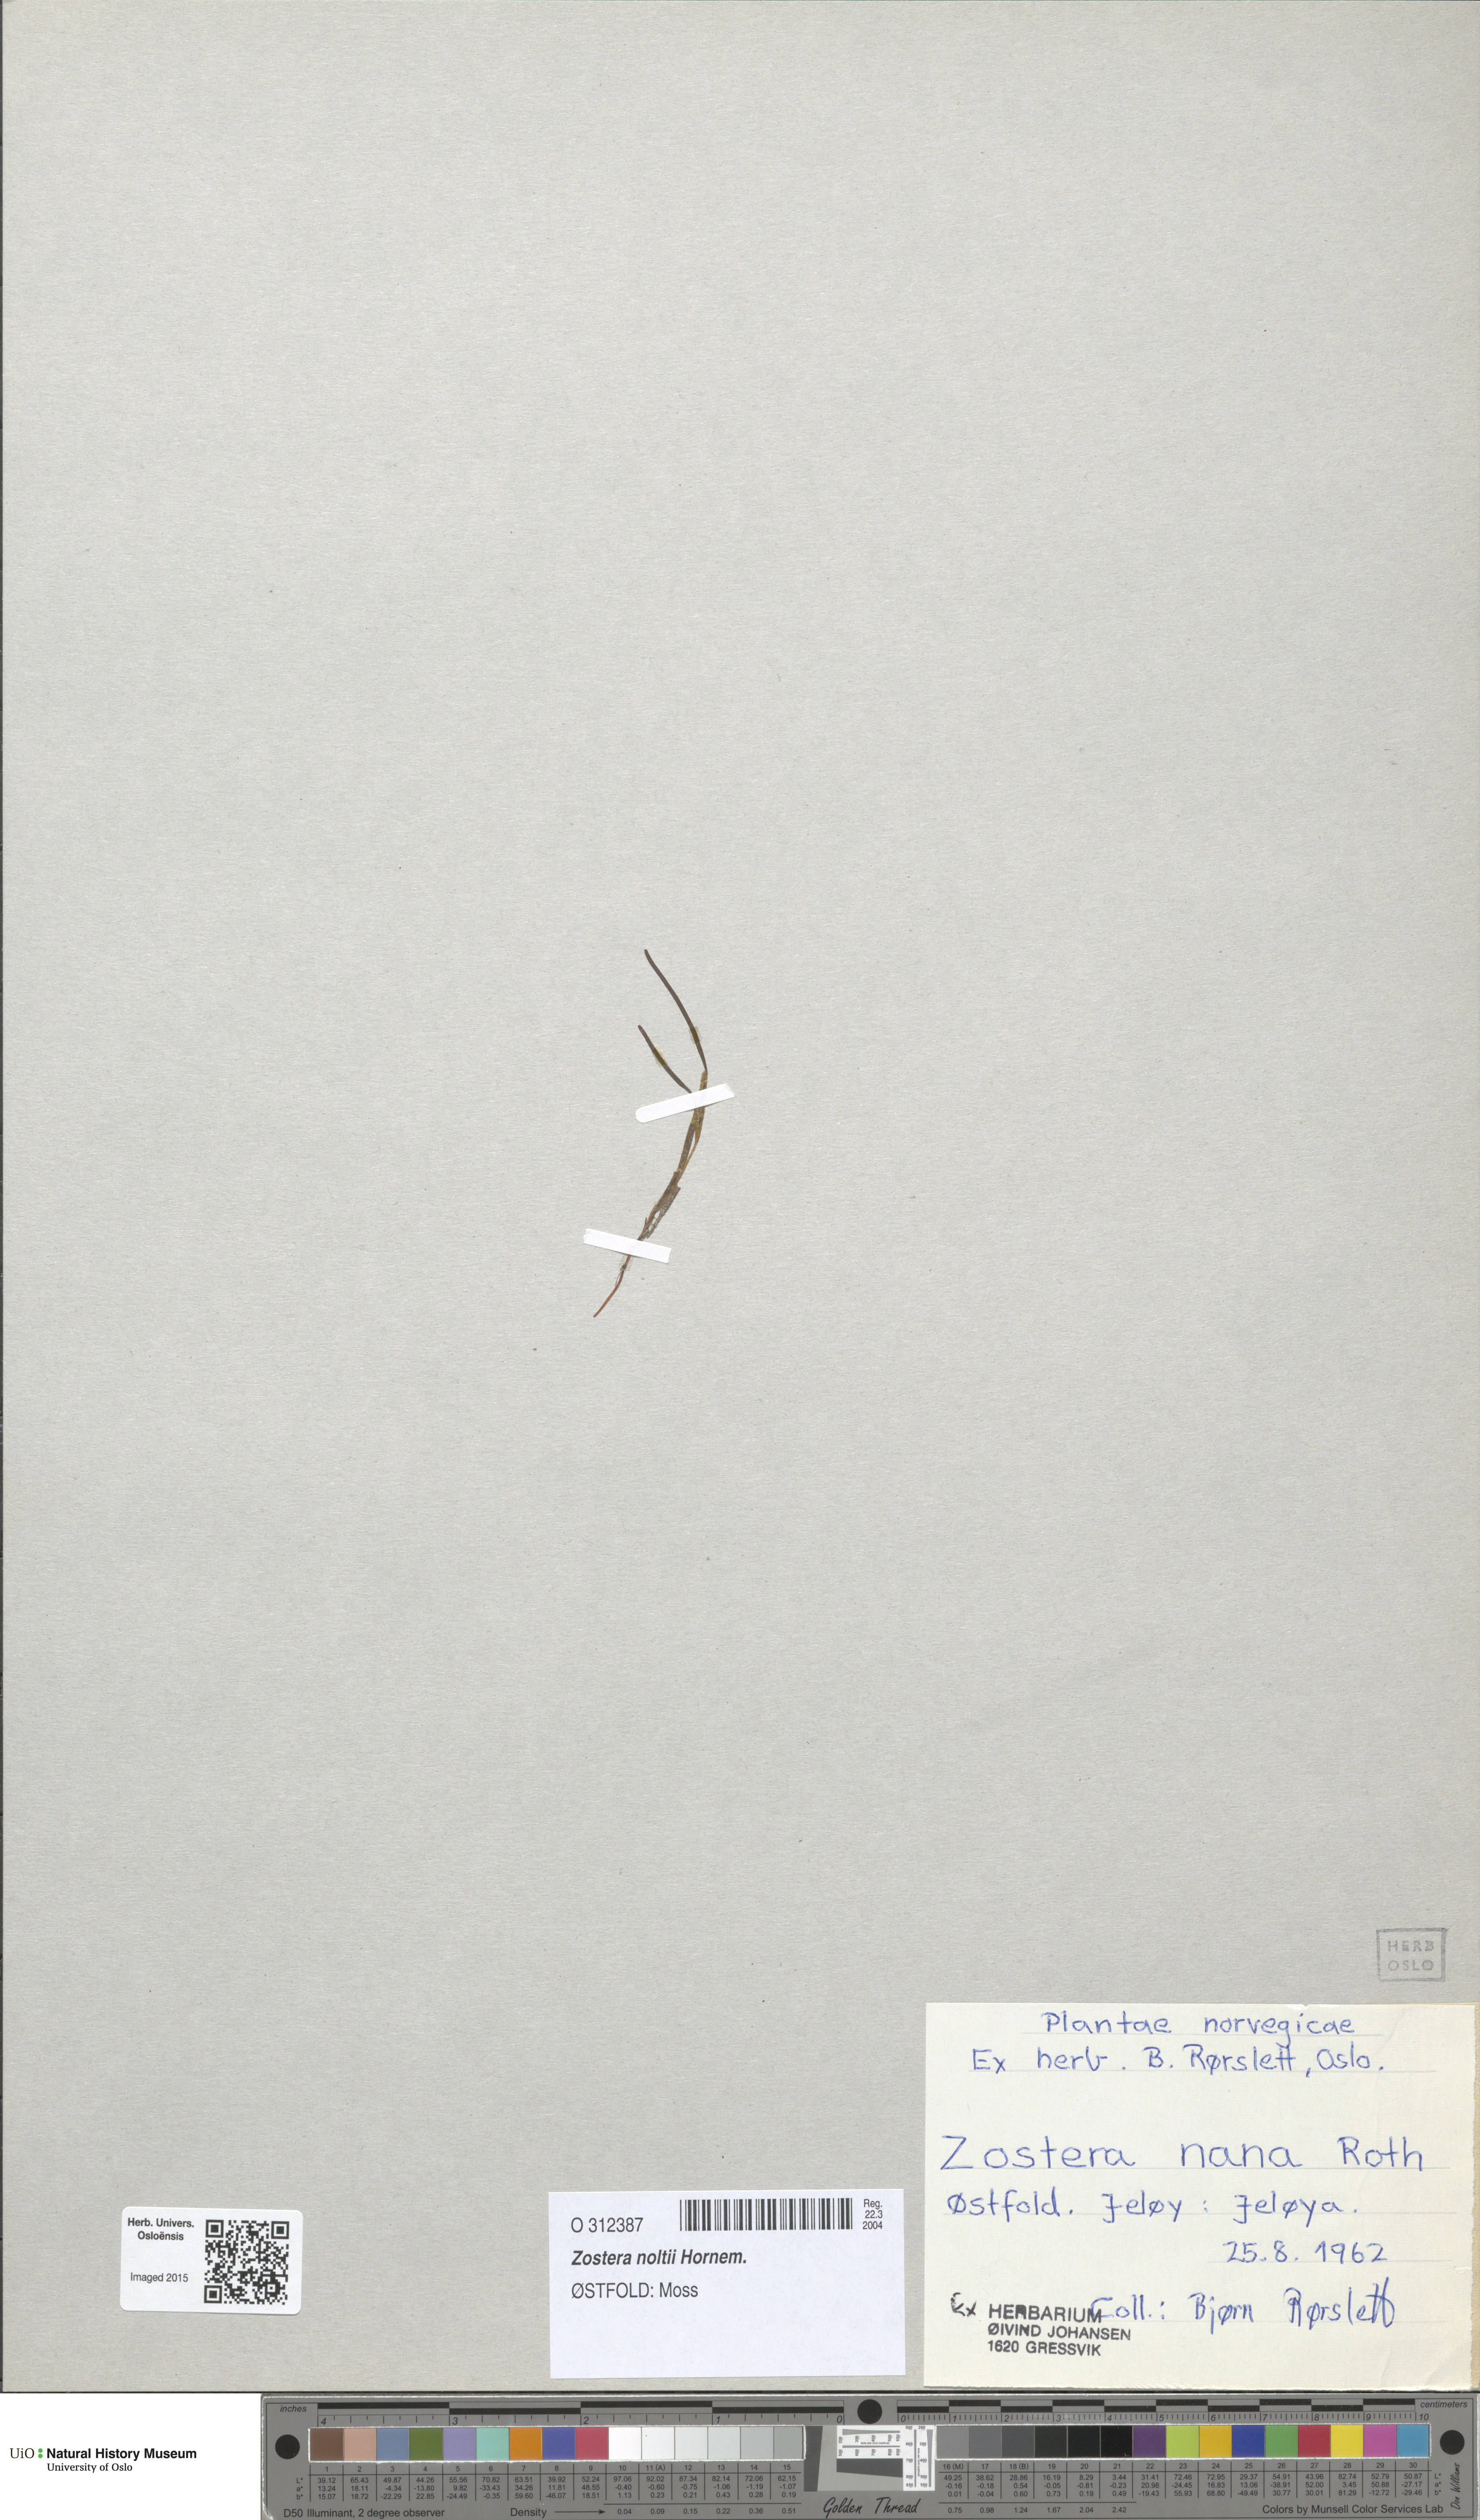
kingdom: Plantae
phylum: Tracheophyta
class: Liliopsida
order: Alismatales
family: Zosteraceae
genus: Zostera
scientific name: Zostera noltii
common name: Dwarf eelgrass
